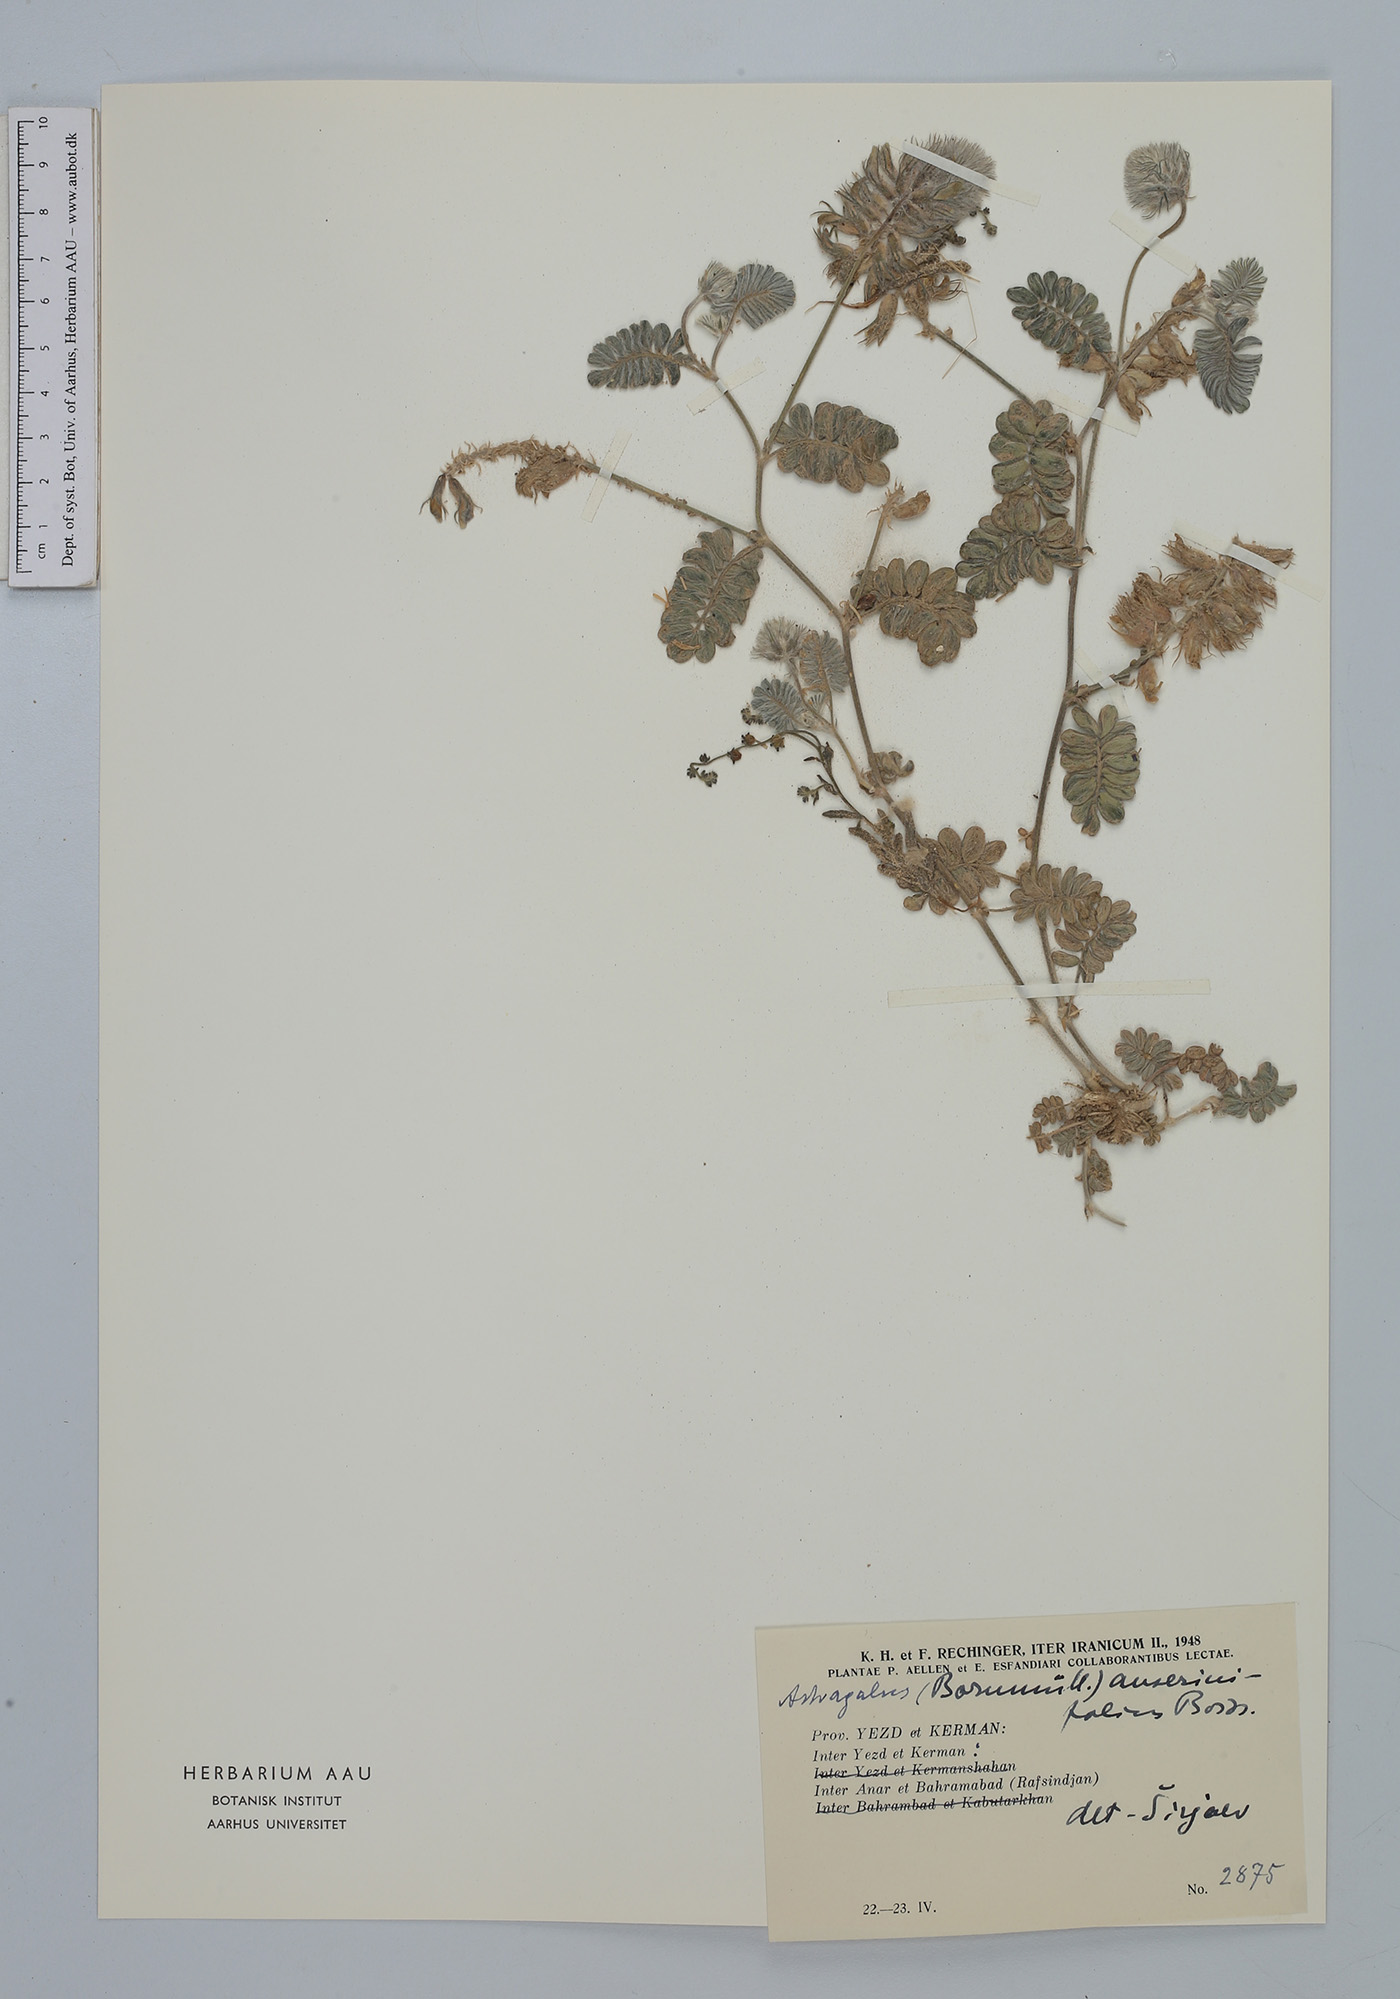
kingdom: Plantae
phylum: Tracheophyta
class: Magnoliopsida
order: Fabales
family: Fabaceae
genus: Astragalus
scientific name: Astragalus anserinifolius
